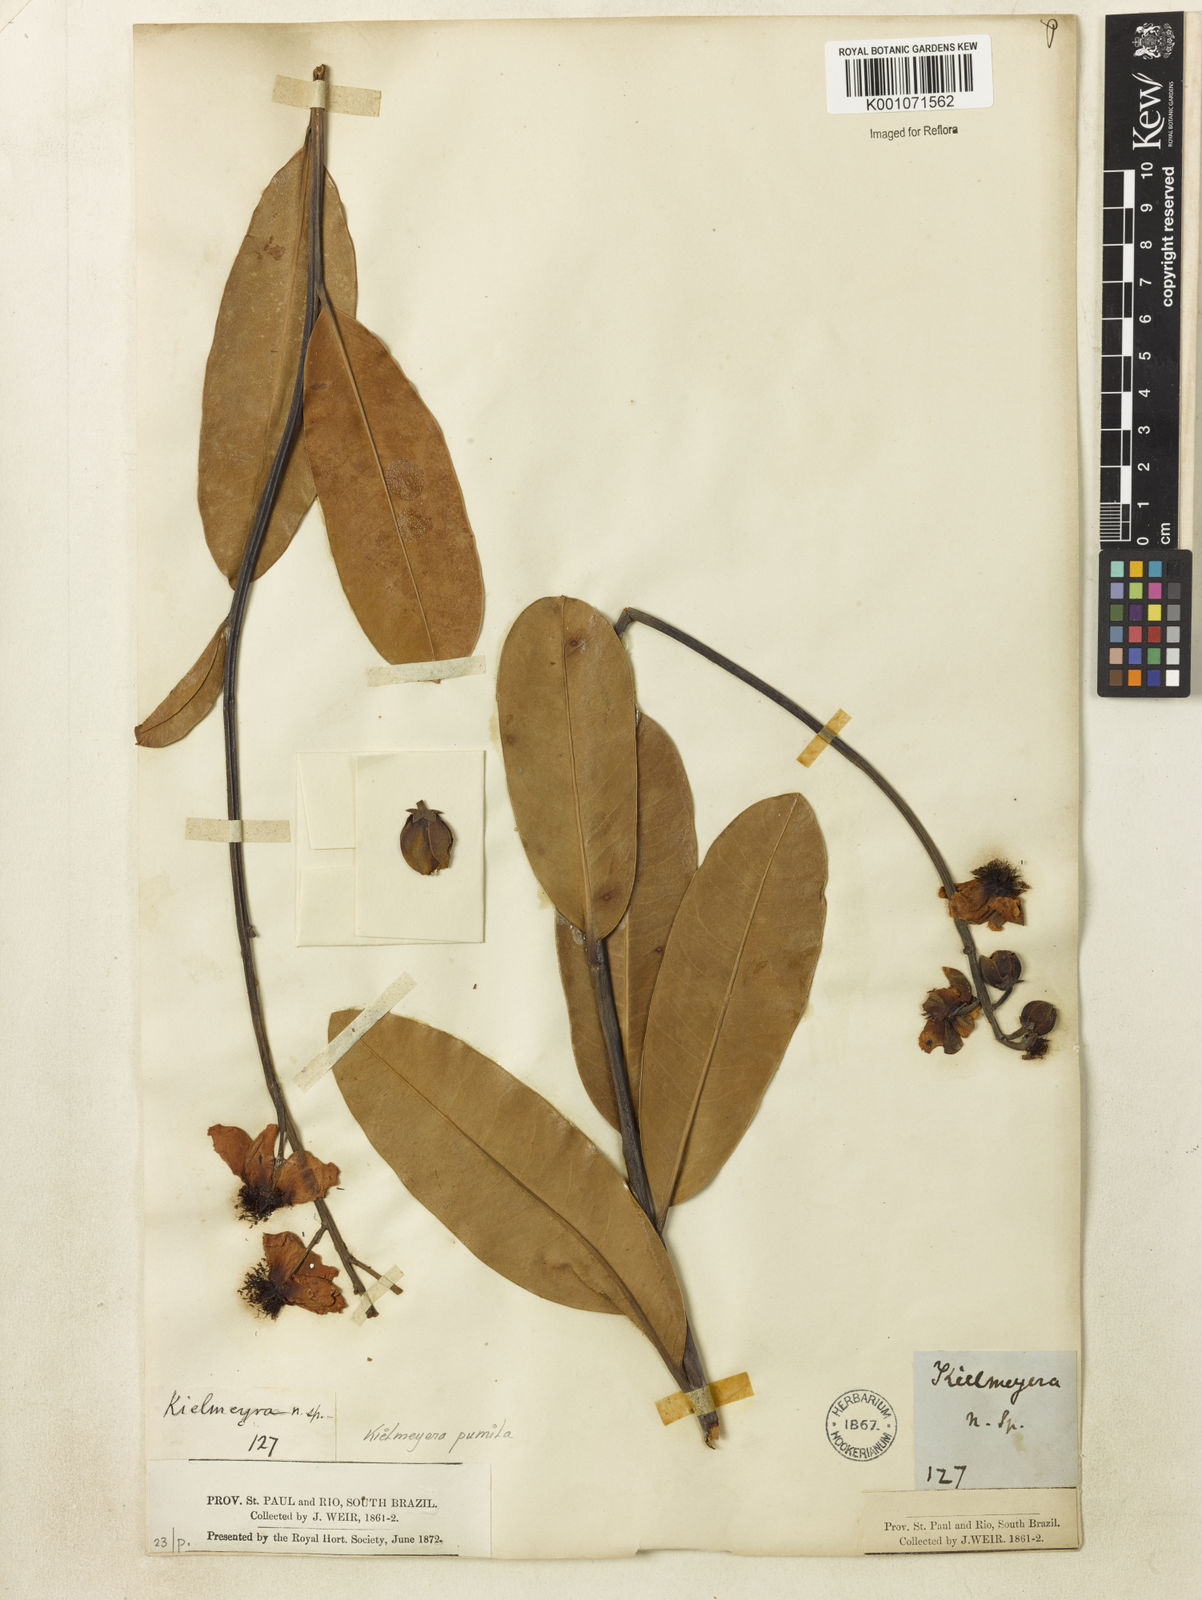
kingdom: Plantae
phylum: Tracheophyta
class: Magnoliopsida
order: Malpighiales
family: Calophyllaceae
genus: Kielmeyera
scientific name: Kielmeyera pumila
